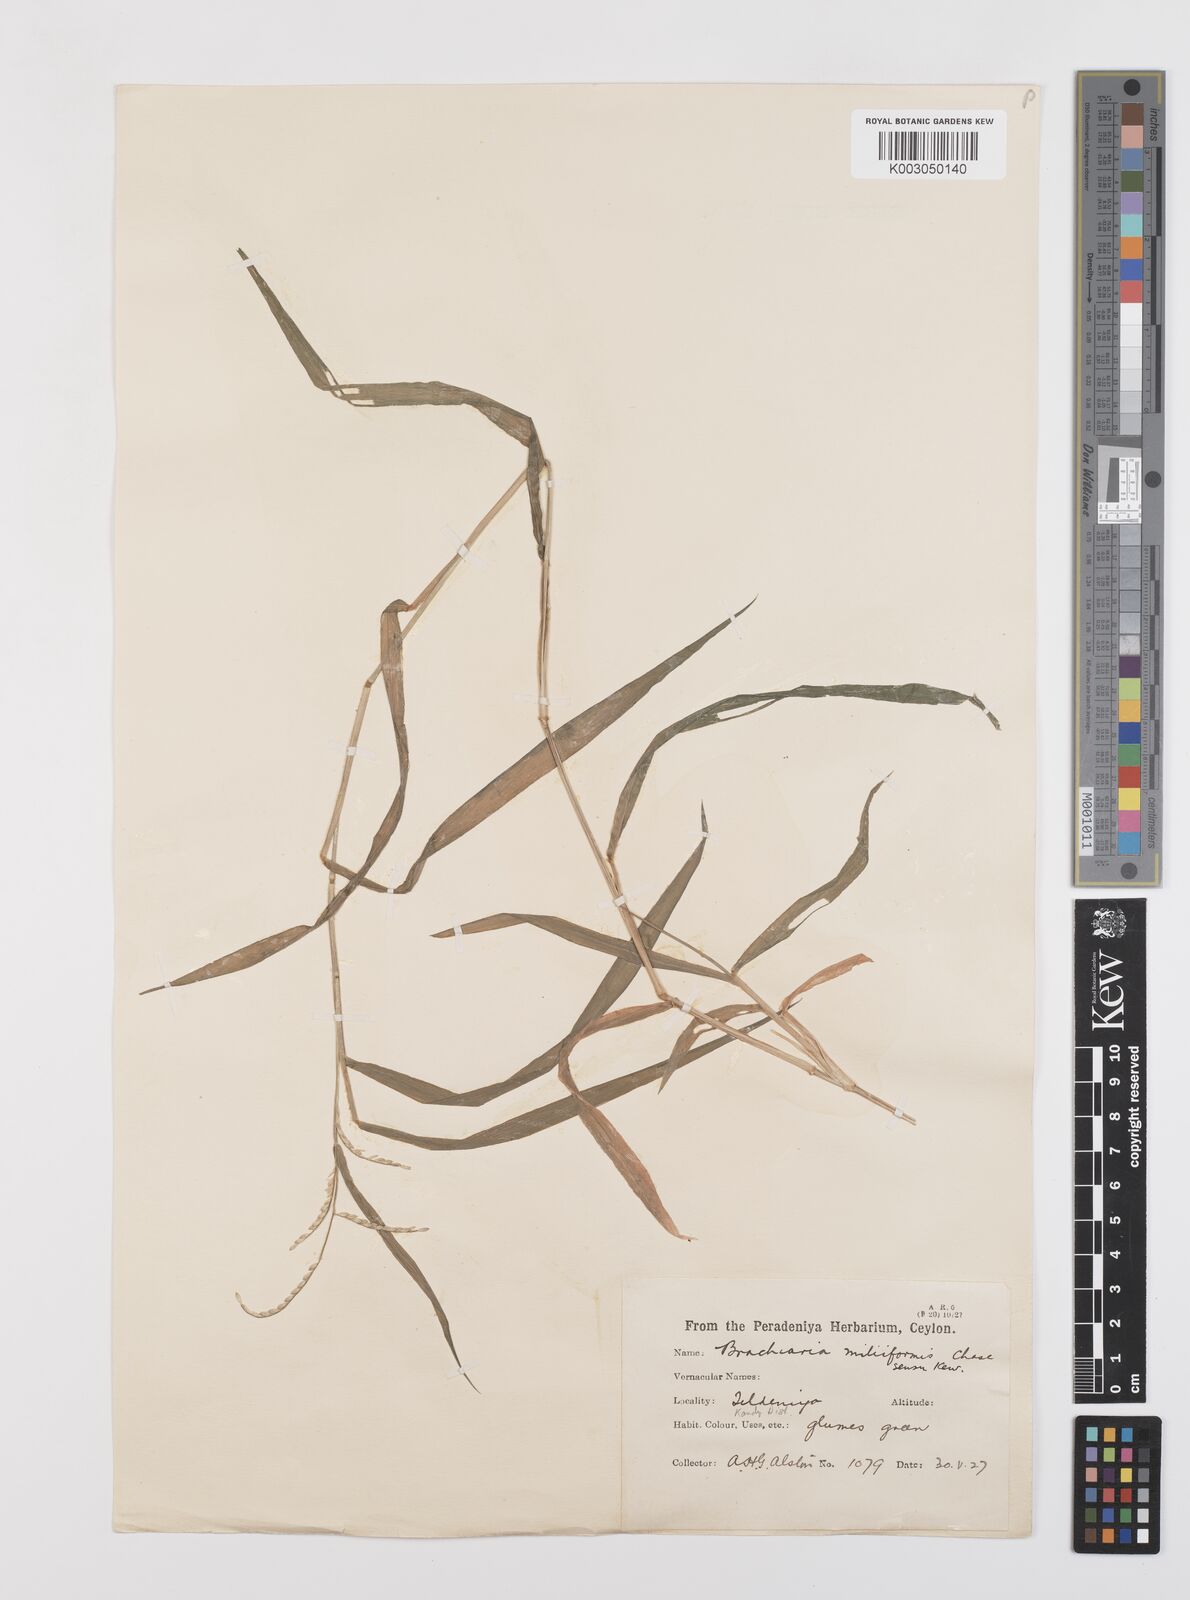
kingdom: Plantae
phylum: Tracheophyta
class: Liliopsida
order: Poales
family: Poaceae
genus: Urochloa
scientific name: Urochloa subquadripara
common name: Armgrass millet
